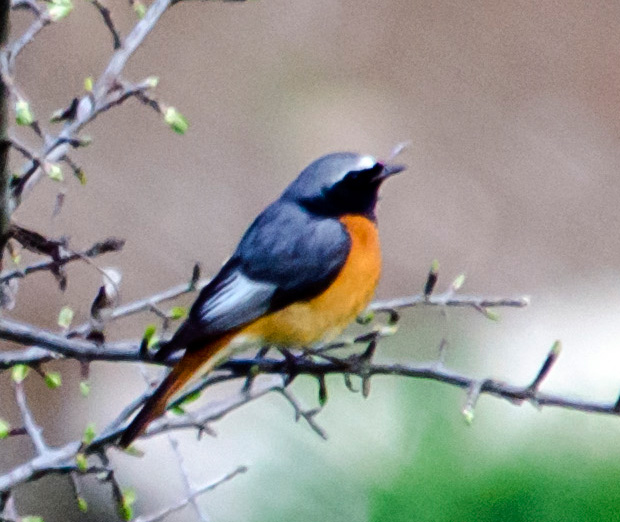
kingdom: Animalia
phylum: Chordata
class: Aves
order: Passeriformes
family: Muscicapidae
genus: Phoenicurus
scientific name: Phoenicurus phoenicurus
